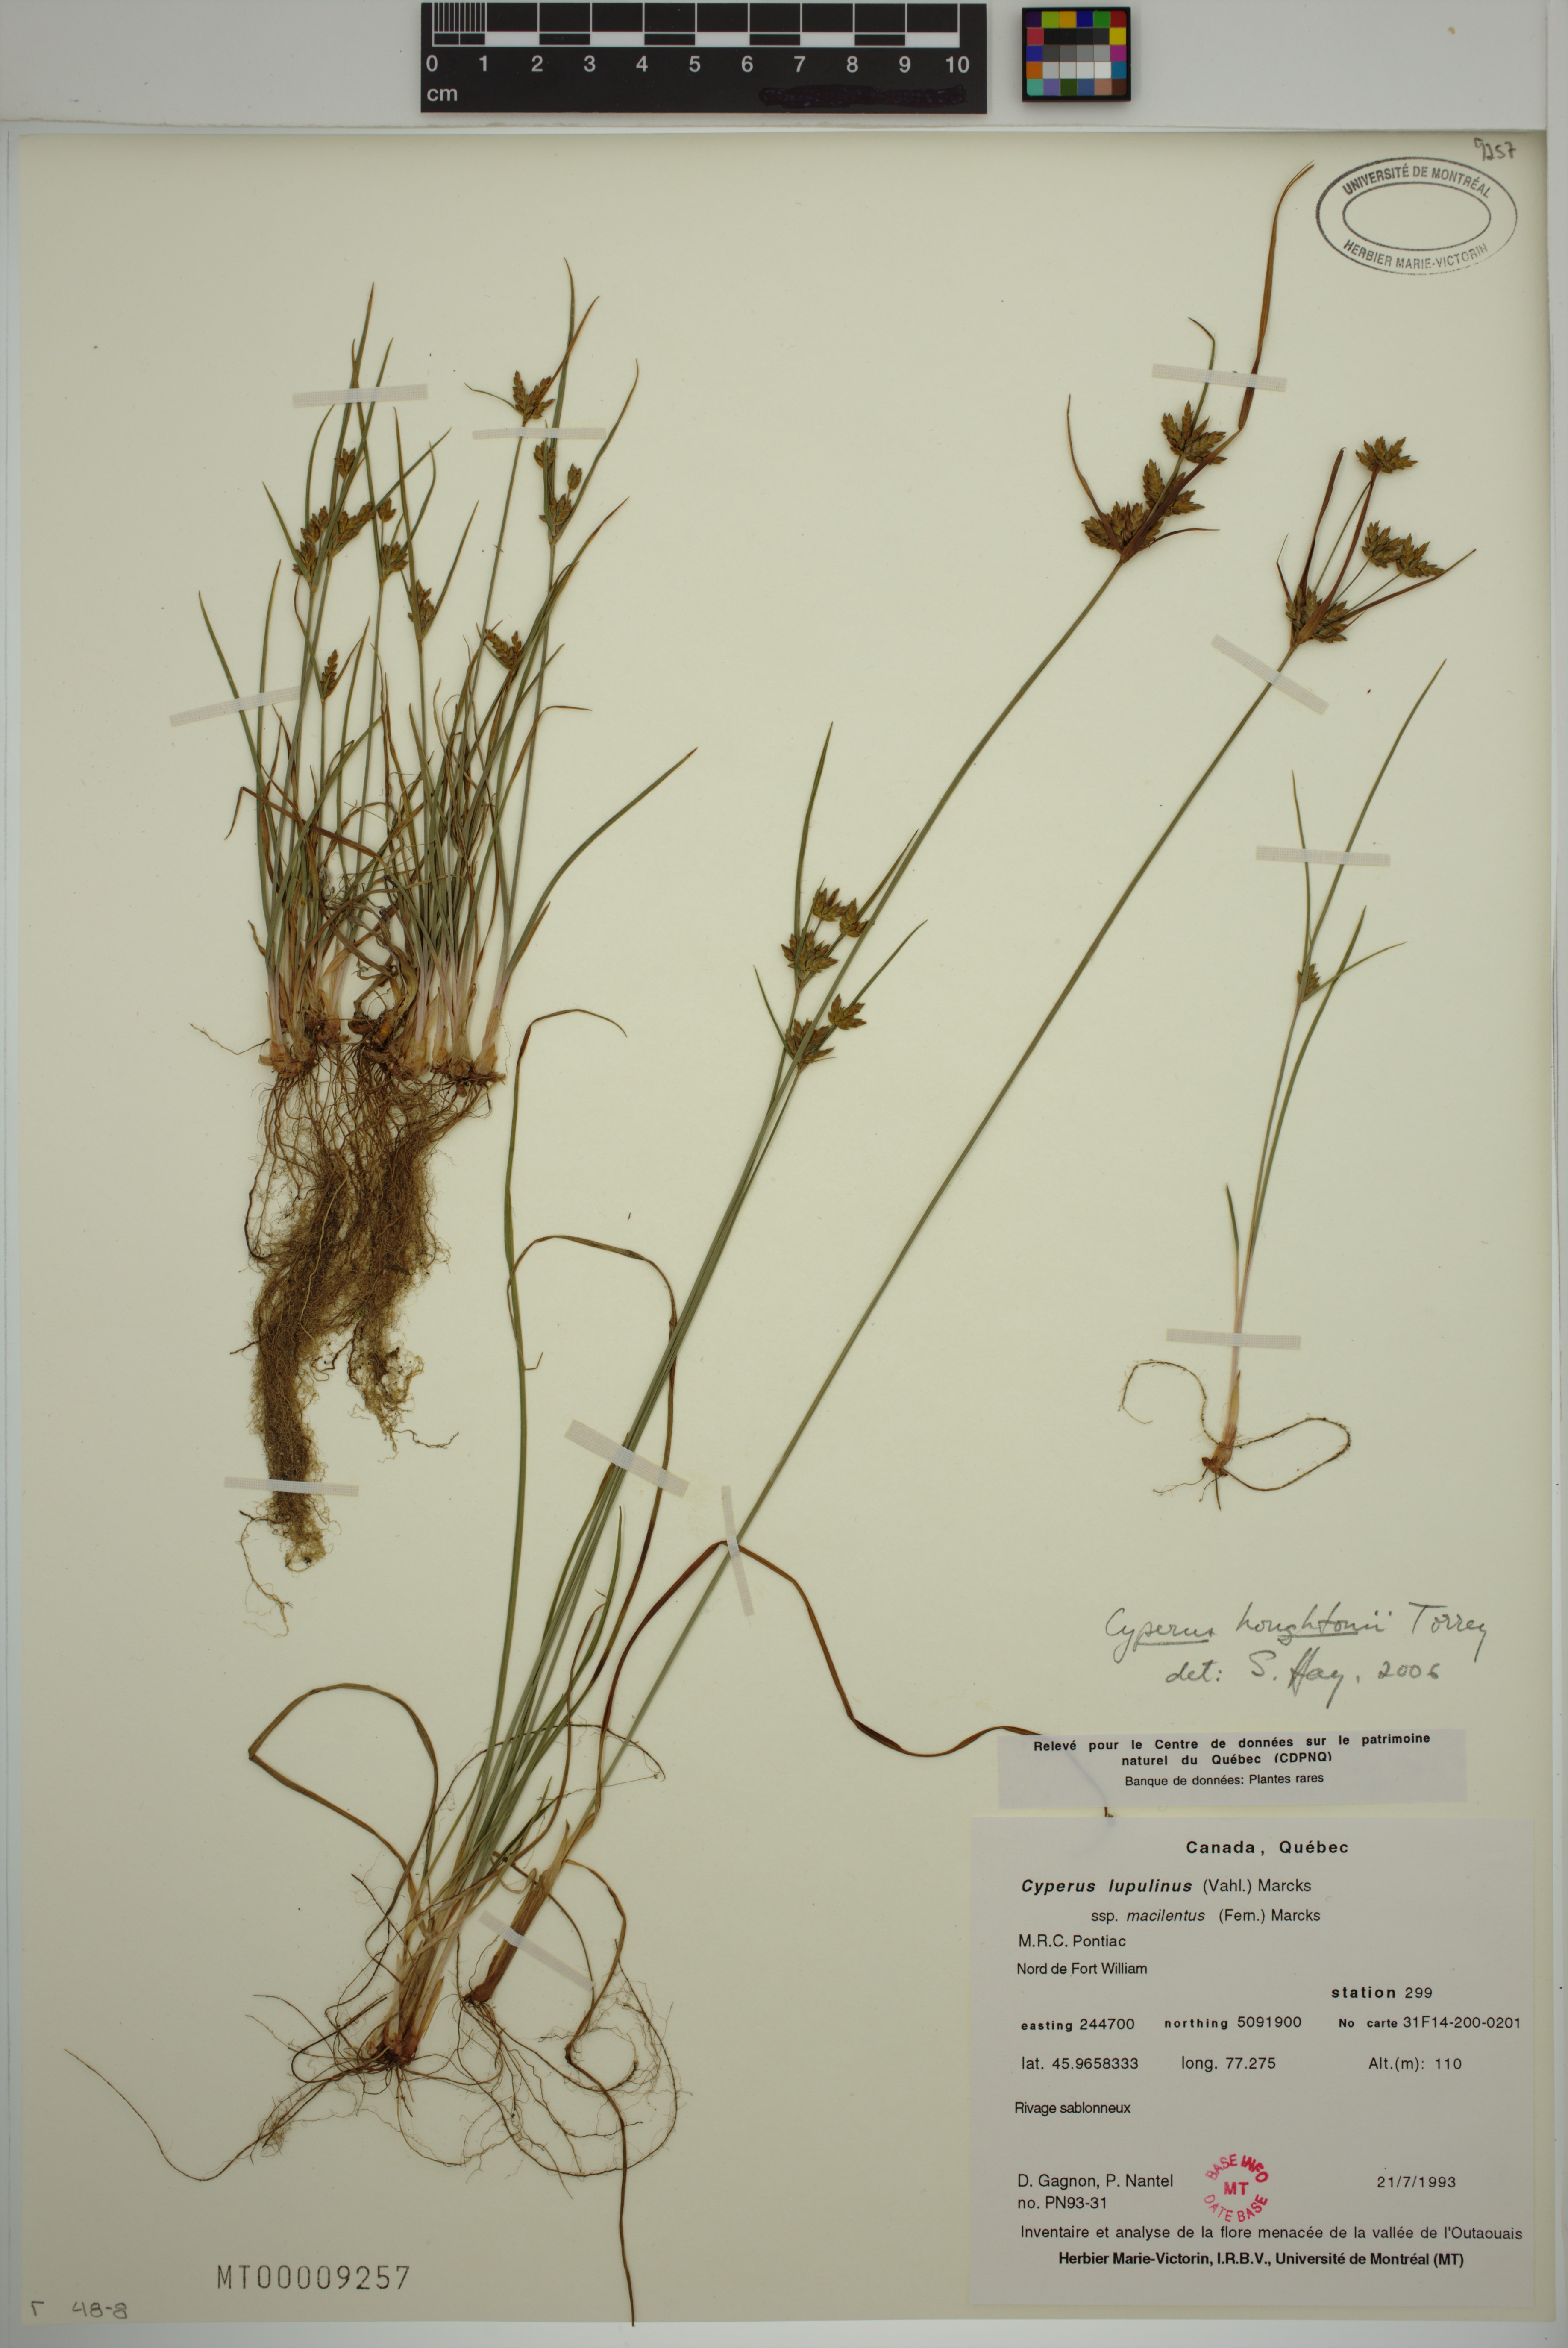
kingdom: Plantae
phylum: Tracheophyta
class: Liliopsida
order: Poales
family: Cyperaceae
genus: Cyperus
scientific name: Cyperus houghtonii
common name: Houghton's cyperus
